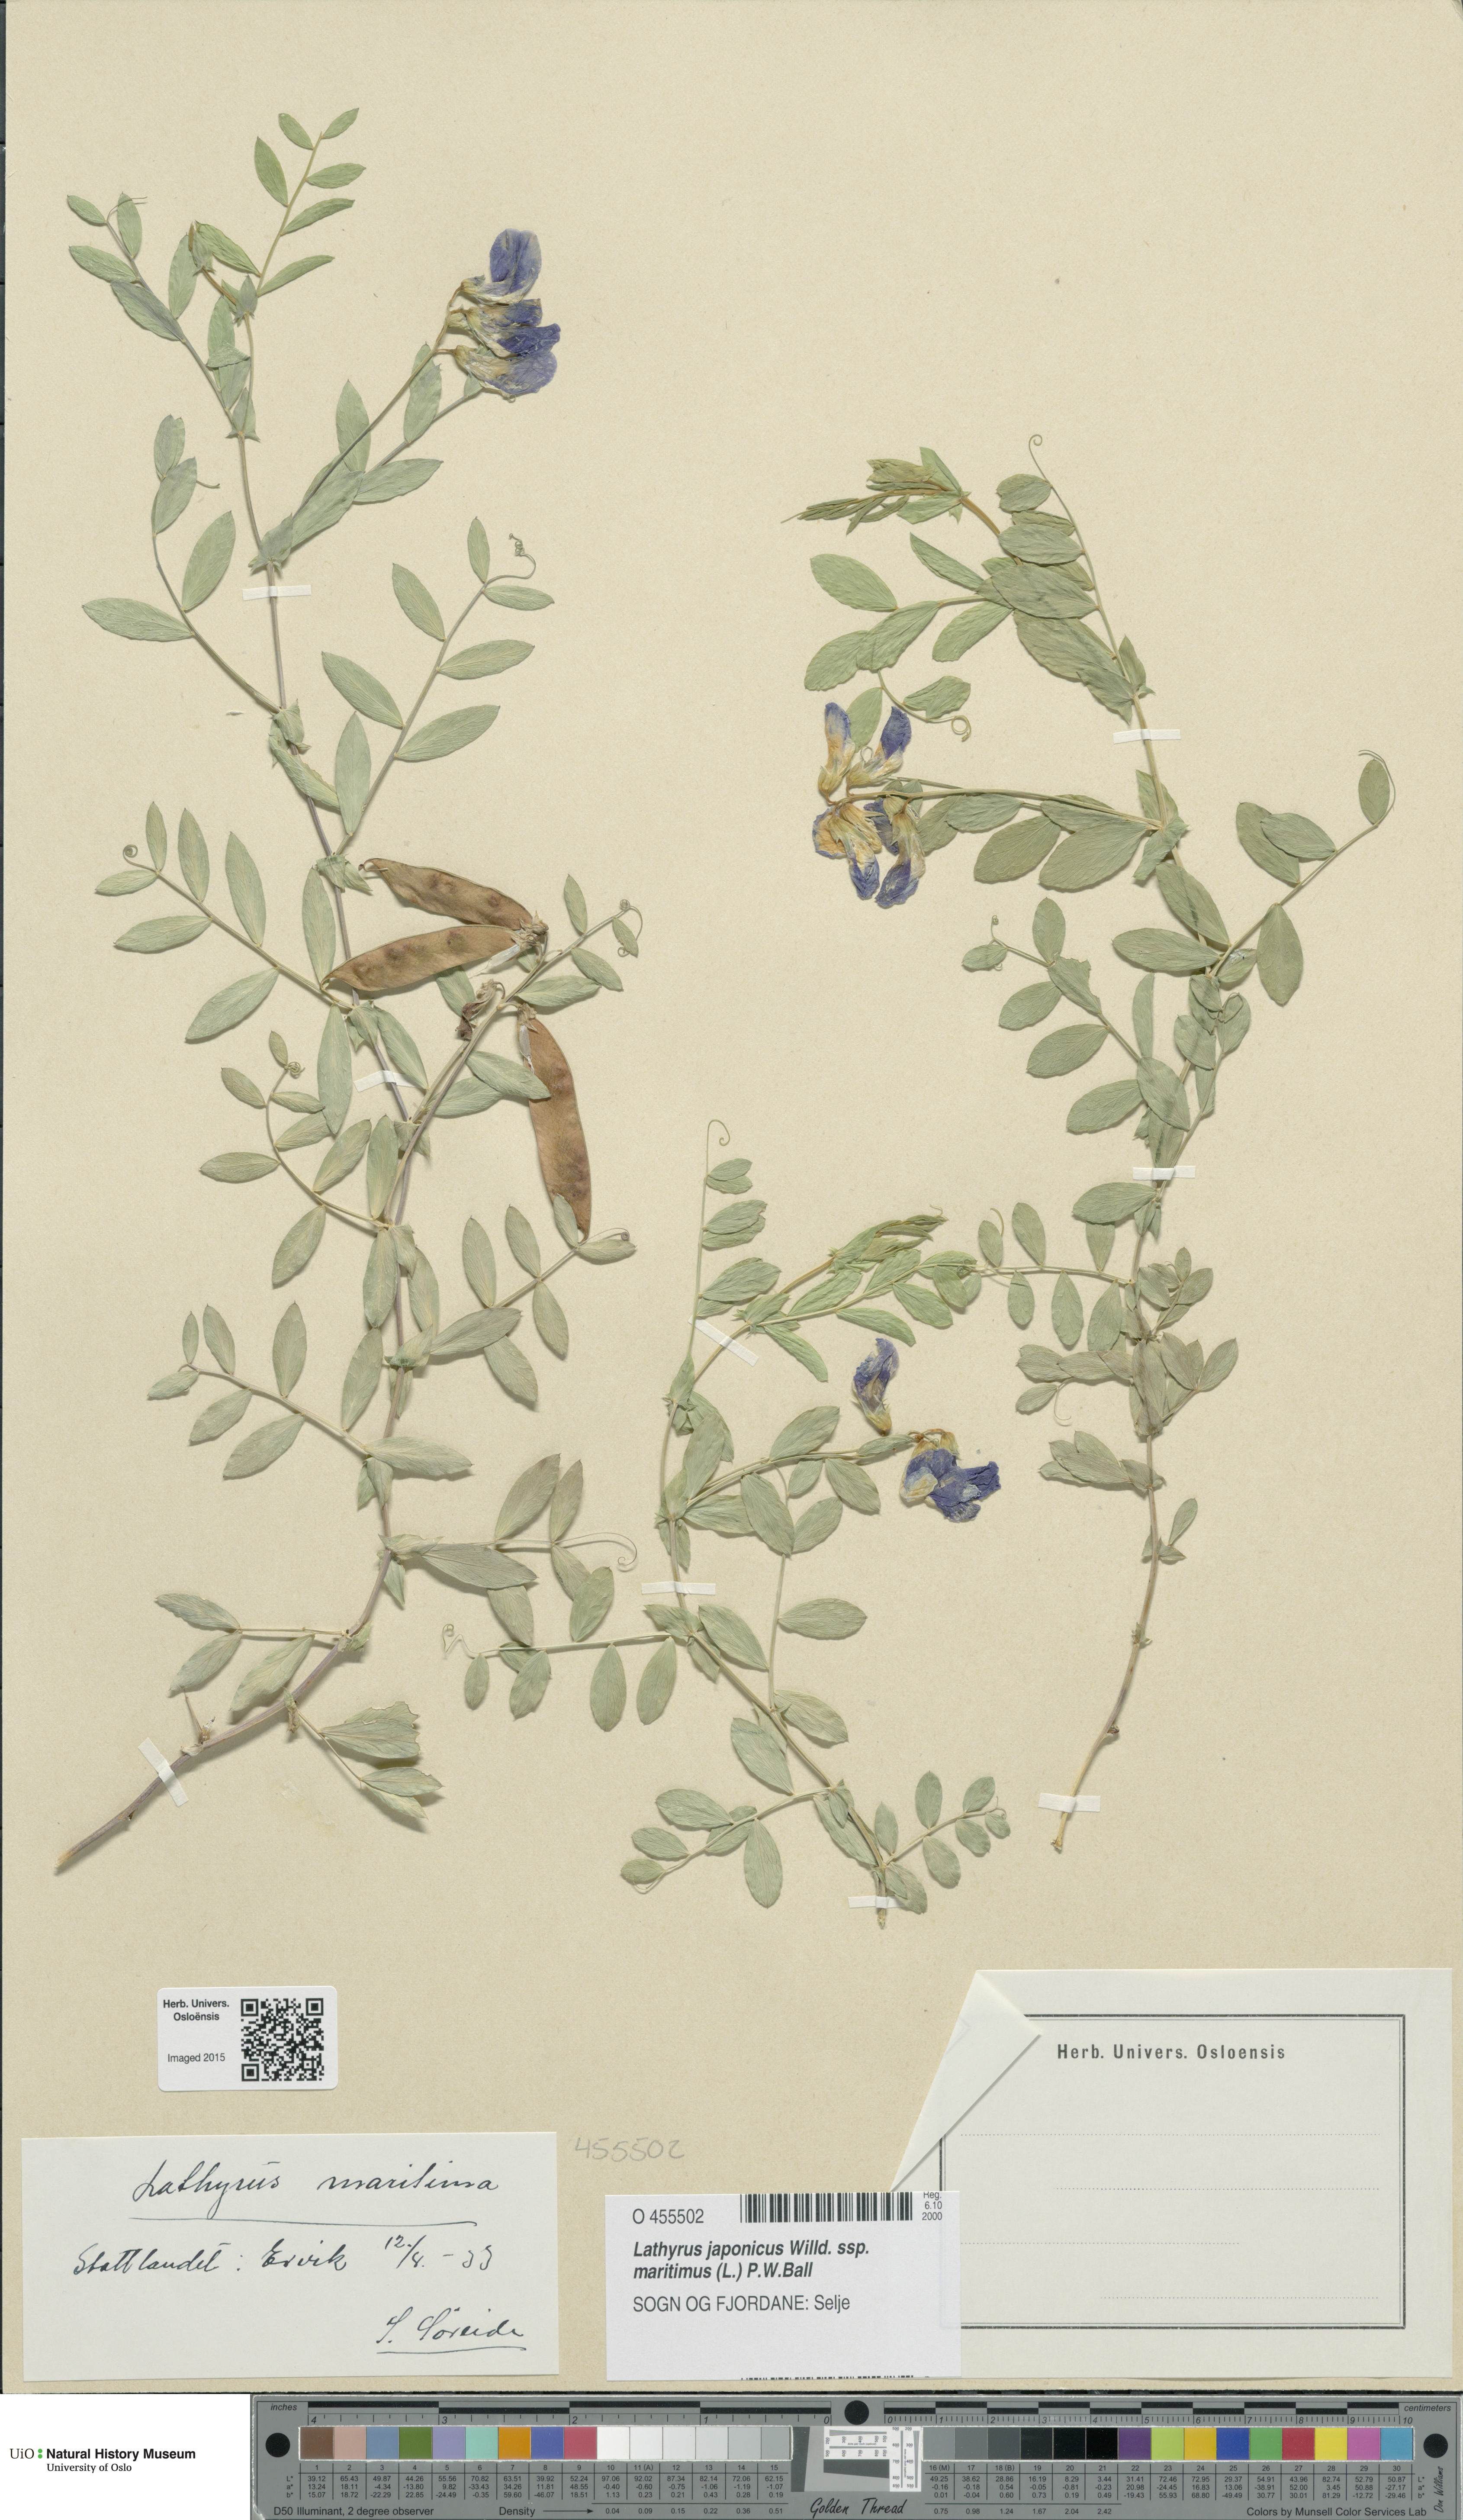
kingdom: Plantae
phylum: Tracheophyta
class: Magnoliopsida
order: Fabales
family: Fabaceae
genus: Lathyrus
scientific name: Lathyrus japonicus
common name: Sea pea
